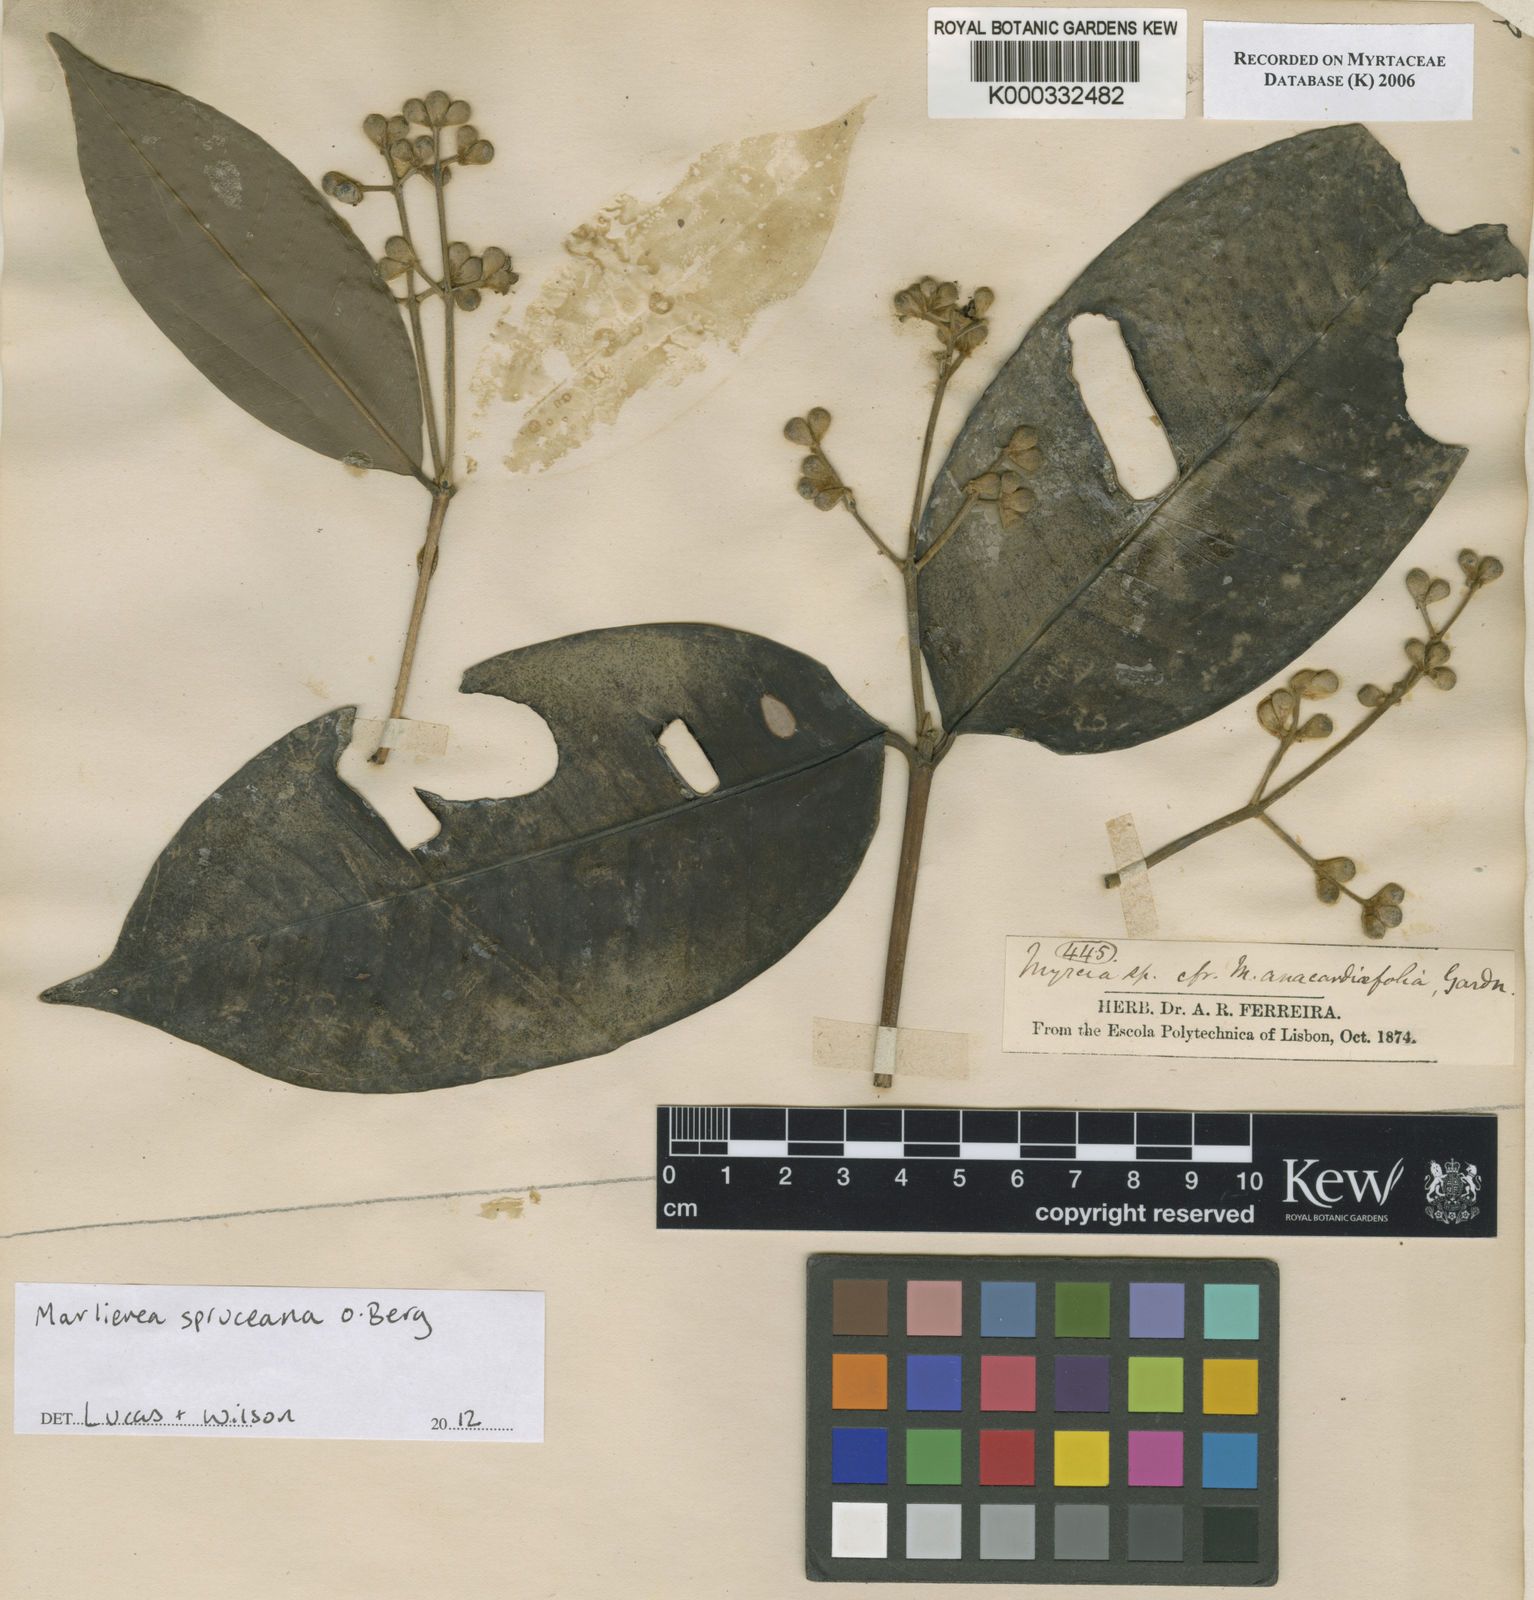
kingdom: Plantae
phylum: Tracheophyta
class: Magnoliopsida
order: Myrtales
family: Myrtaceae
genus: Myrcia
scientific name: Myrcia argentigemma
